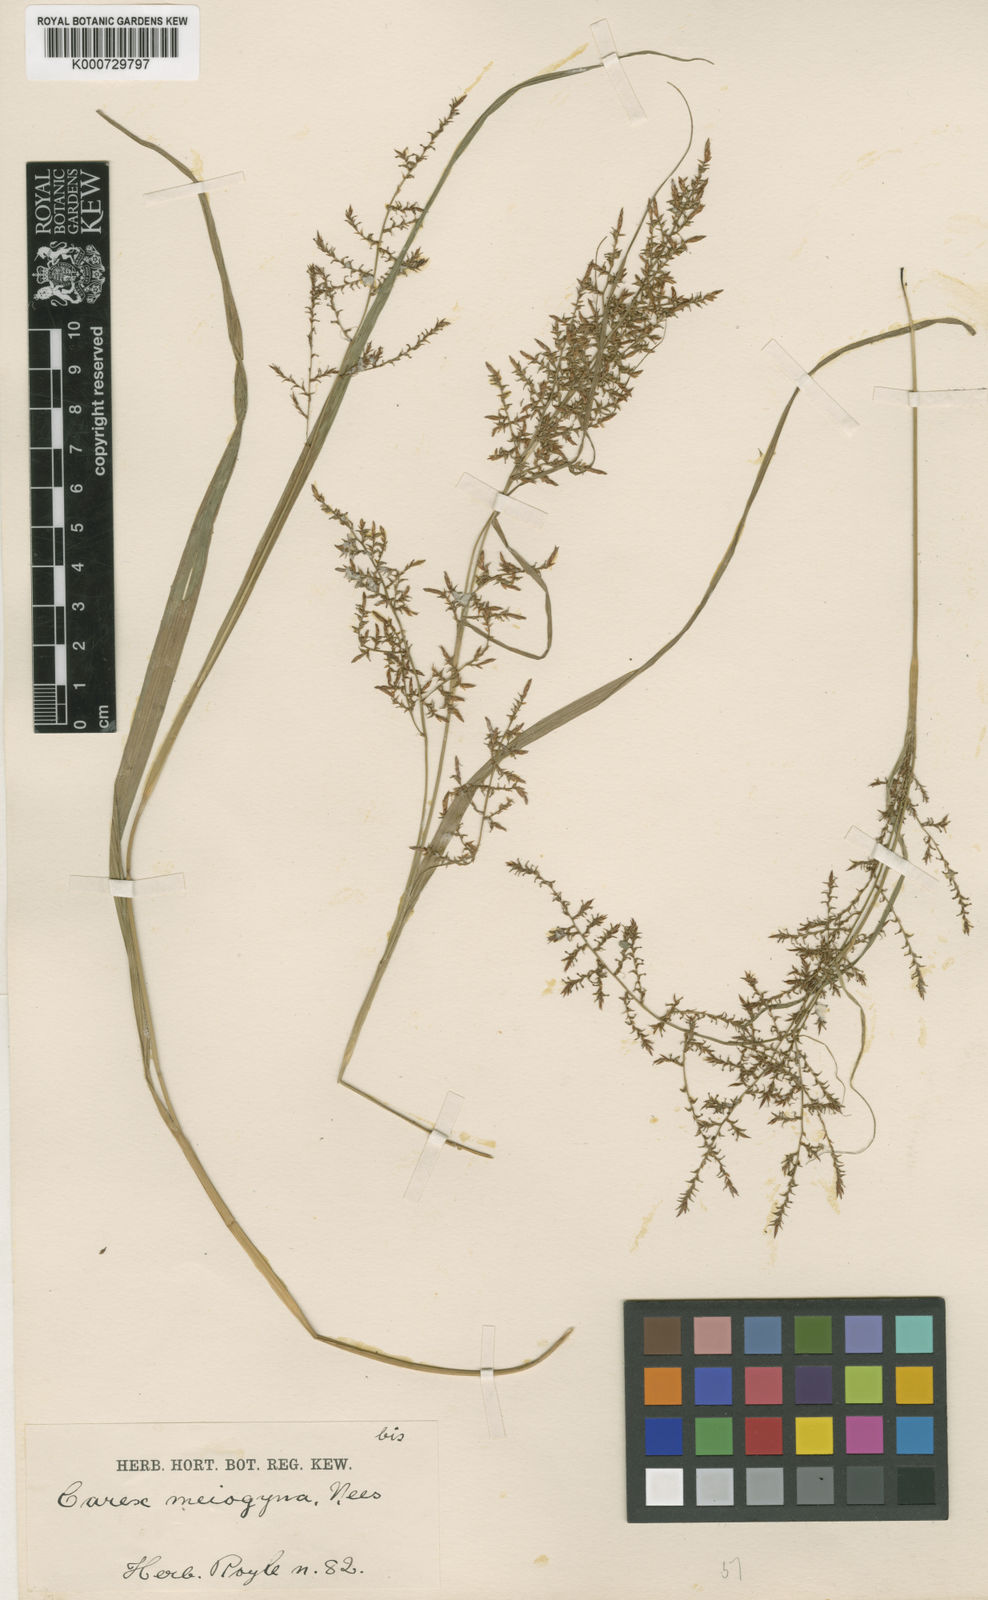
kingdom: Plantae
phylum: Tracheophyta
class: Liliopsida
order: Poales
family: Cyperaceae
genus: Carex
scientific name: Carex filicina
